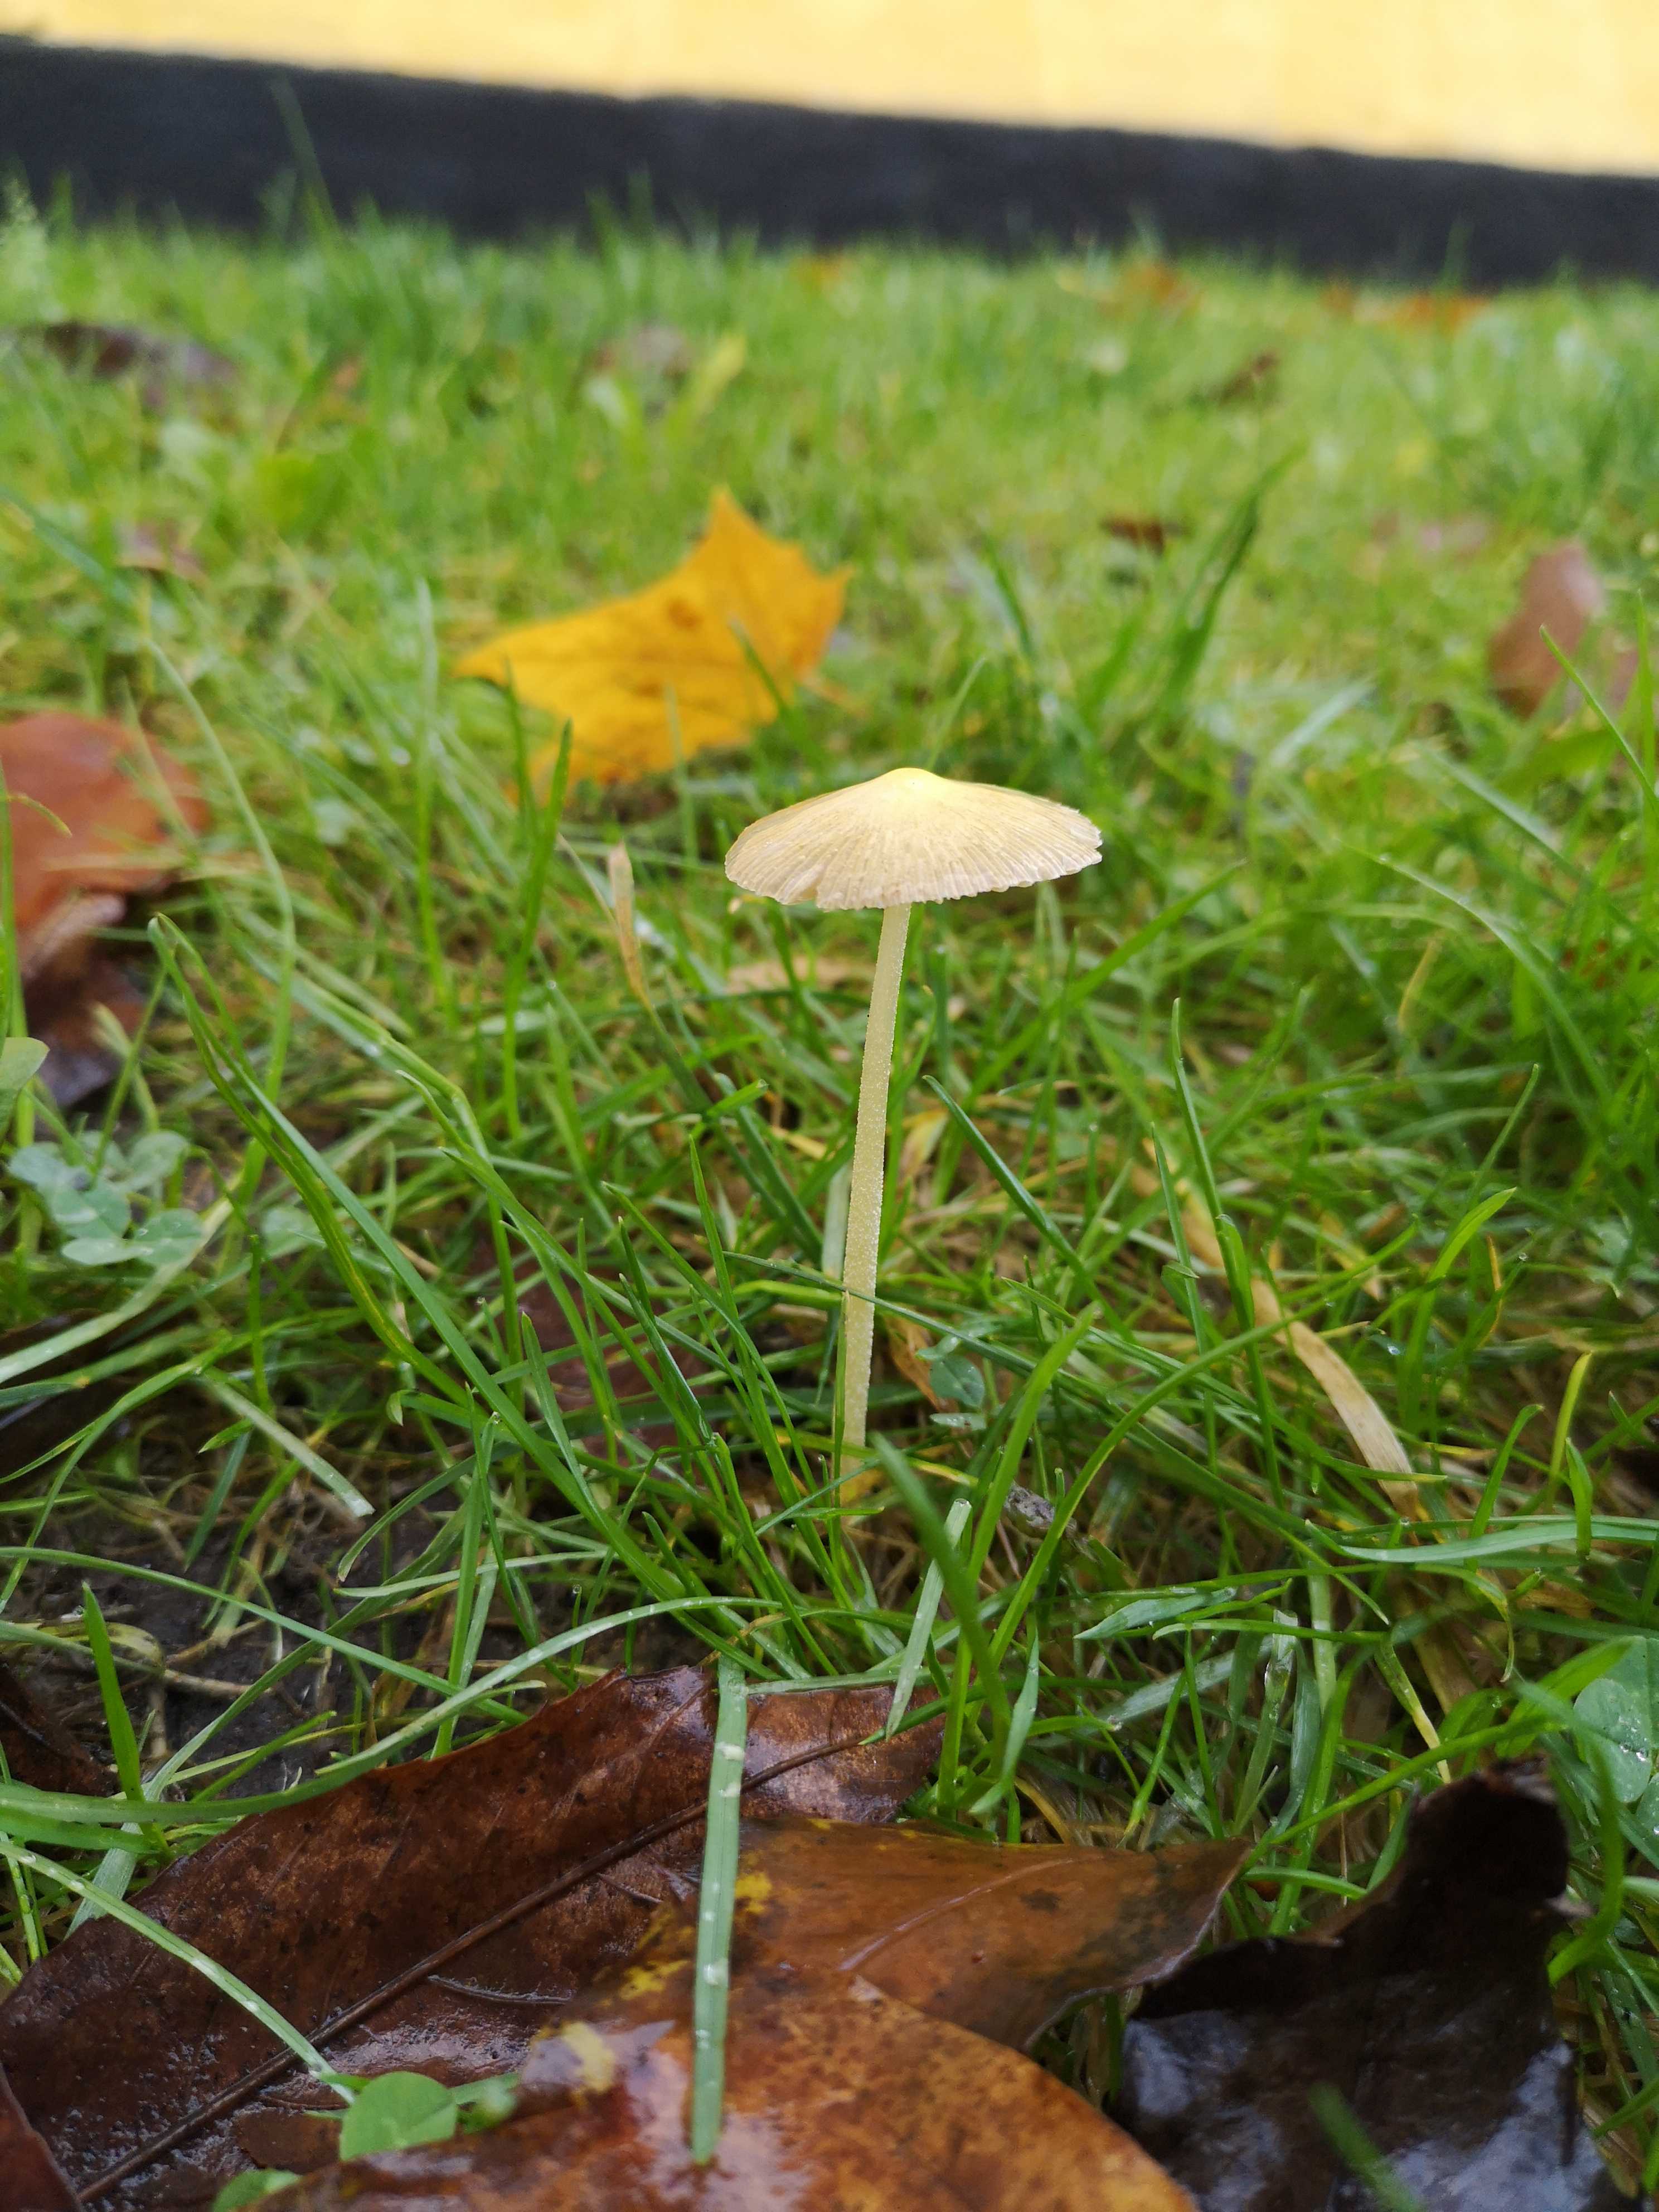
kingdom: Fungi
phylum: Basidiomycota
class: Agaricomycetes
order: Agaricales
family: Bolbitiaceae
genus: Bolbitius
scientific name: Bolbitius titubans
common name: almindelig gulhat
